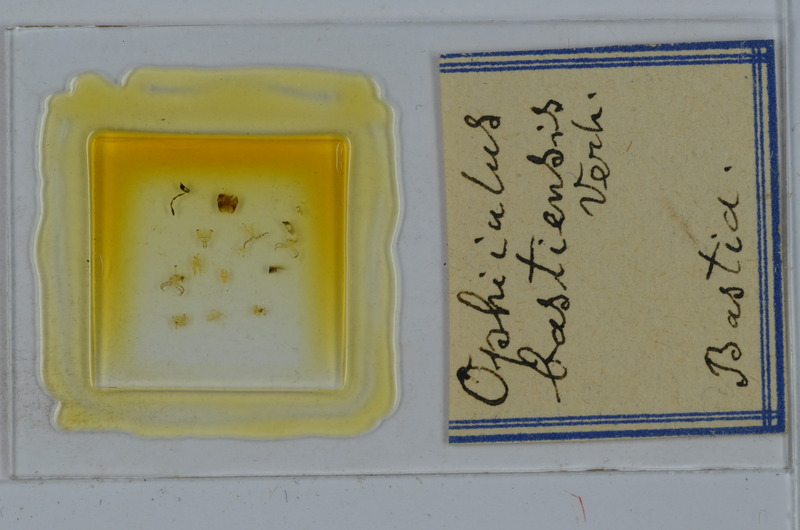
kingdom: Animalia
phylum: Arthropoda
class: Diplopoda
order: Julida
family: Julidae
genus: Ophyiulus
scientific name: Ophyiulus bastiensis
